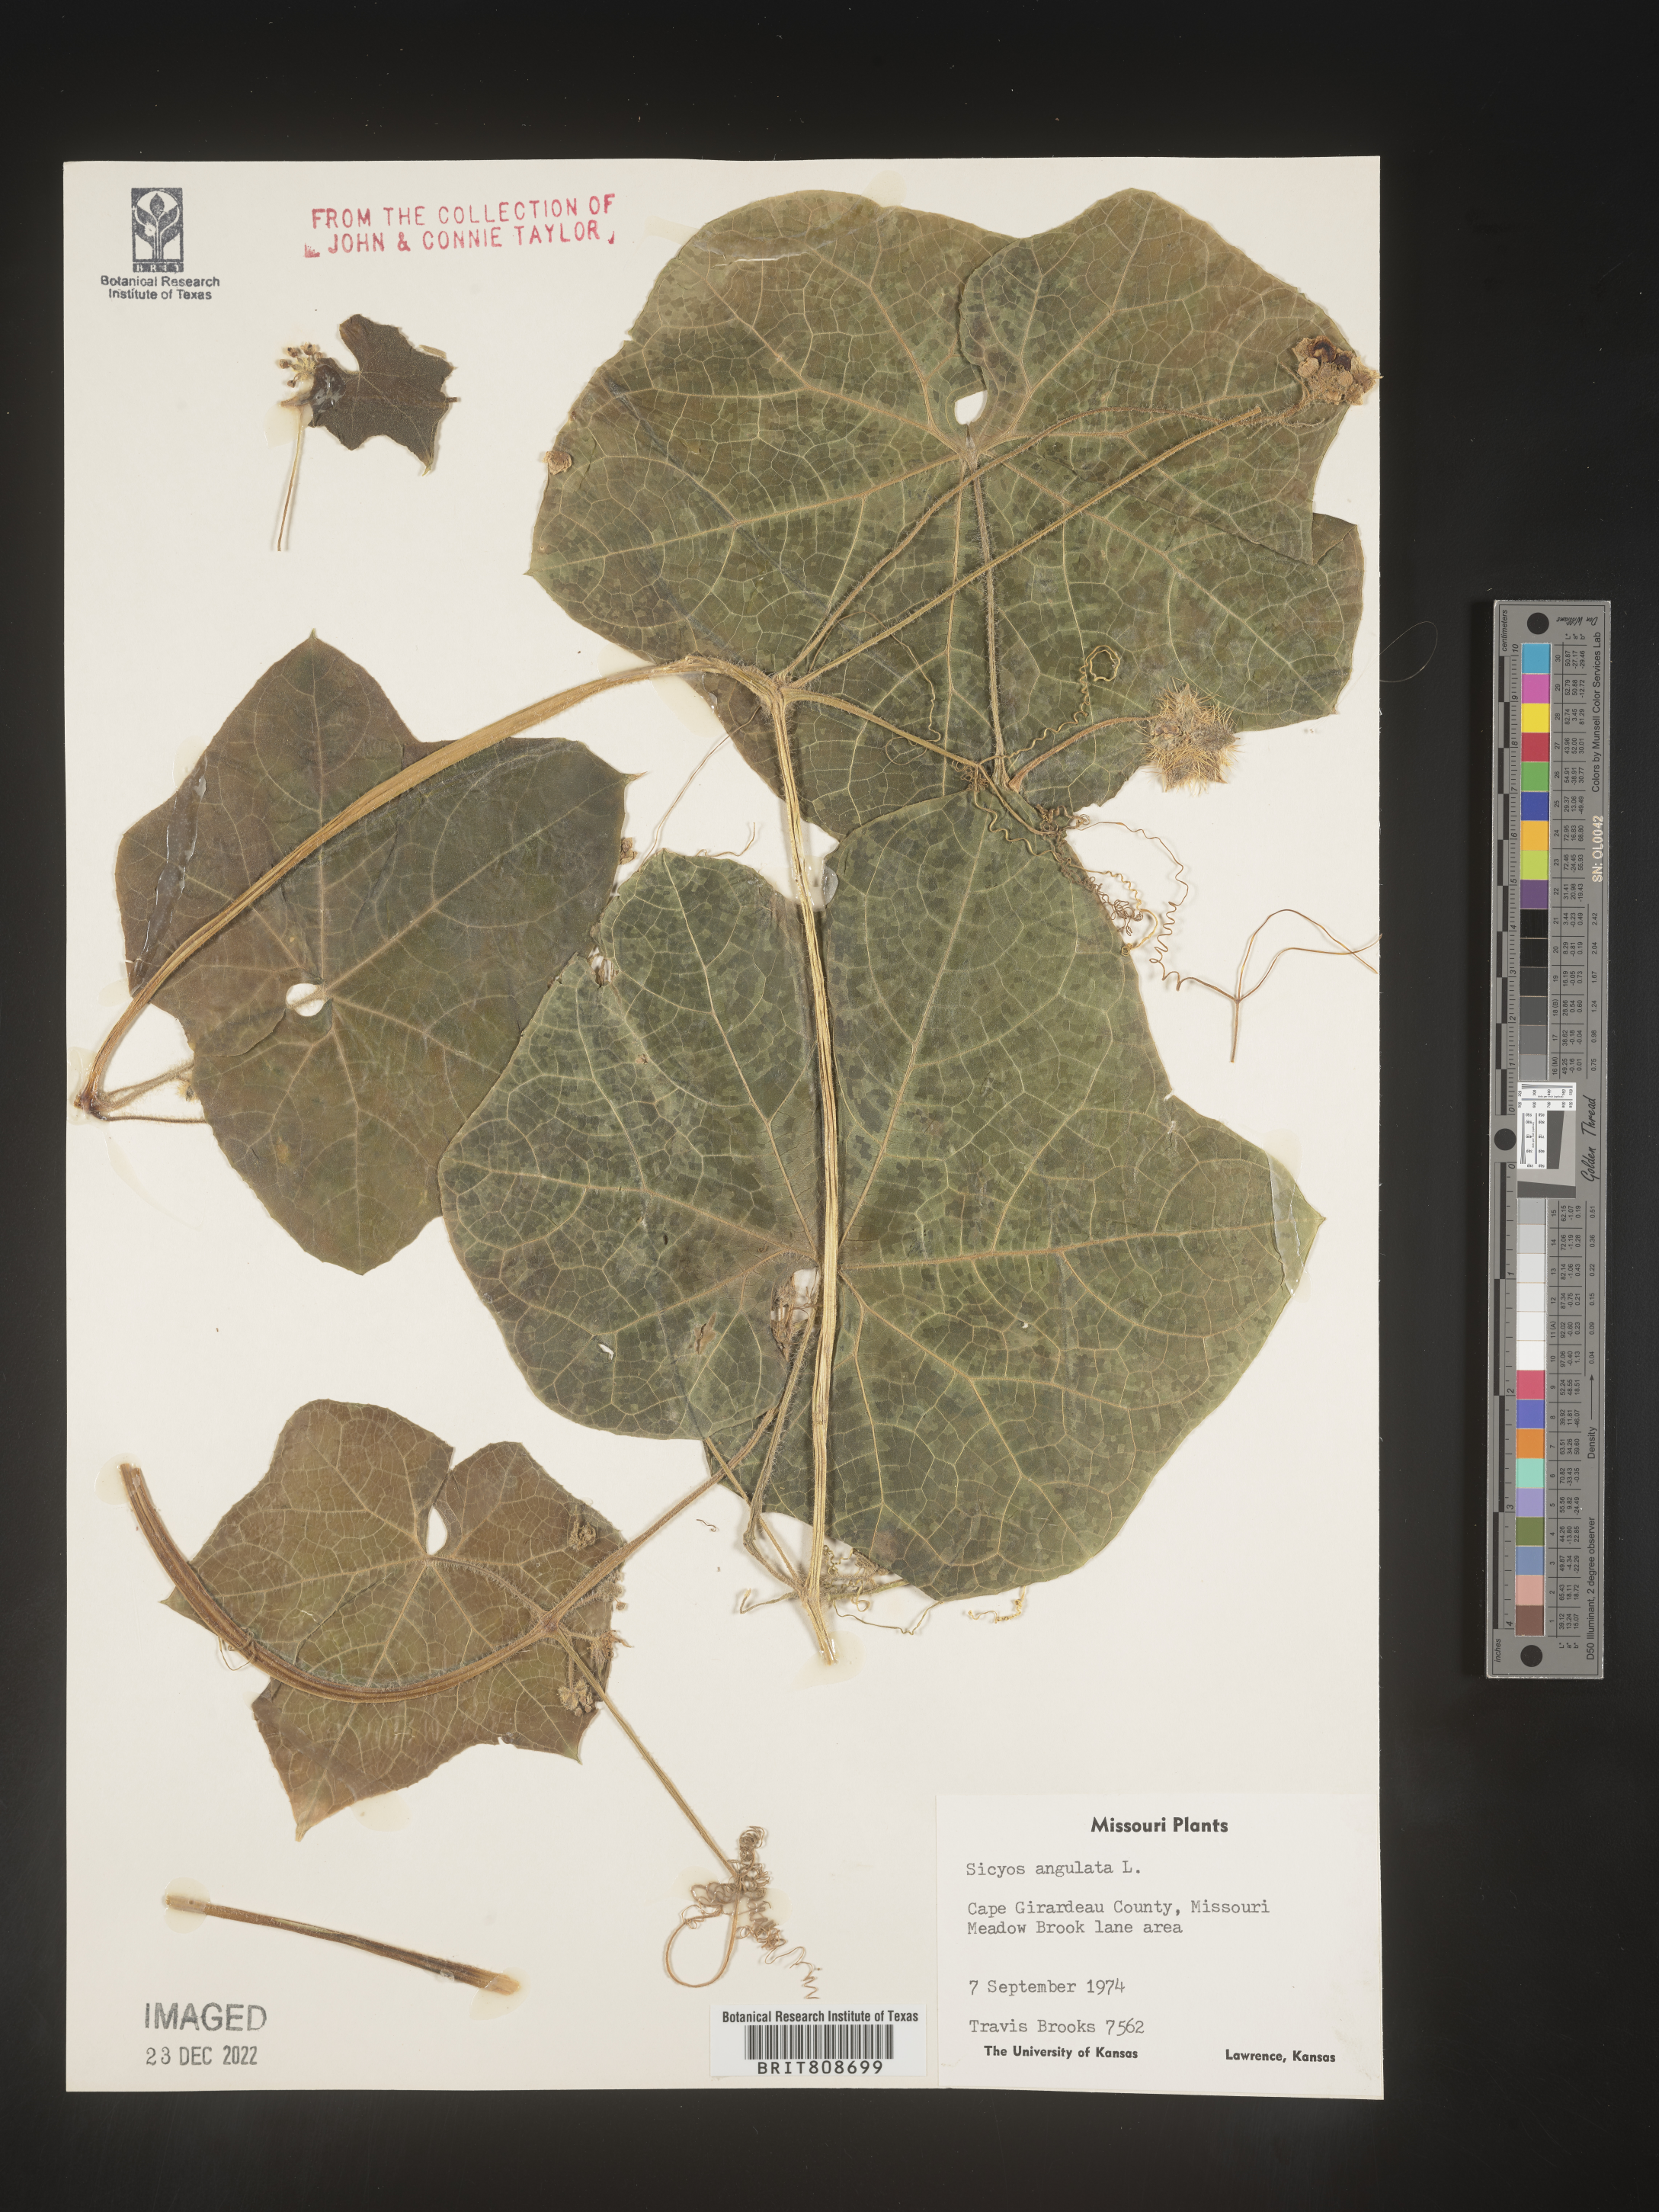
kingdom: Plantae
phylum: Tracheophyta
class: Magnoliopsida
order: Cucurbitales
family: Cucurbitaceae
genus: Sicyos
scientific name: Sicyos angulatus
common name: Angled burr cucumber
